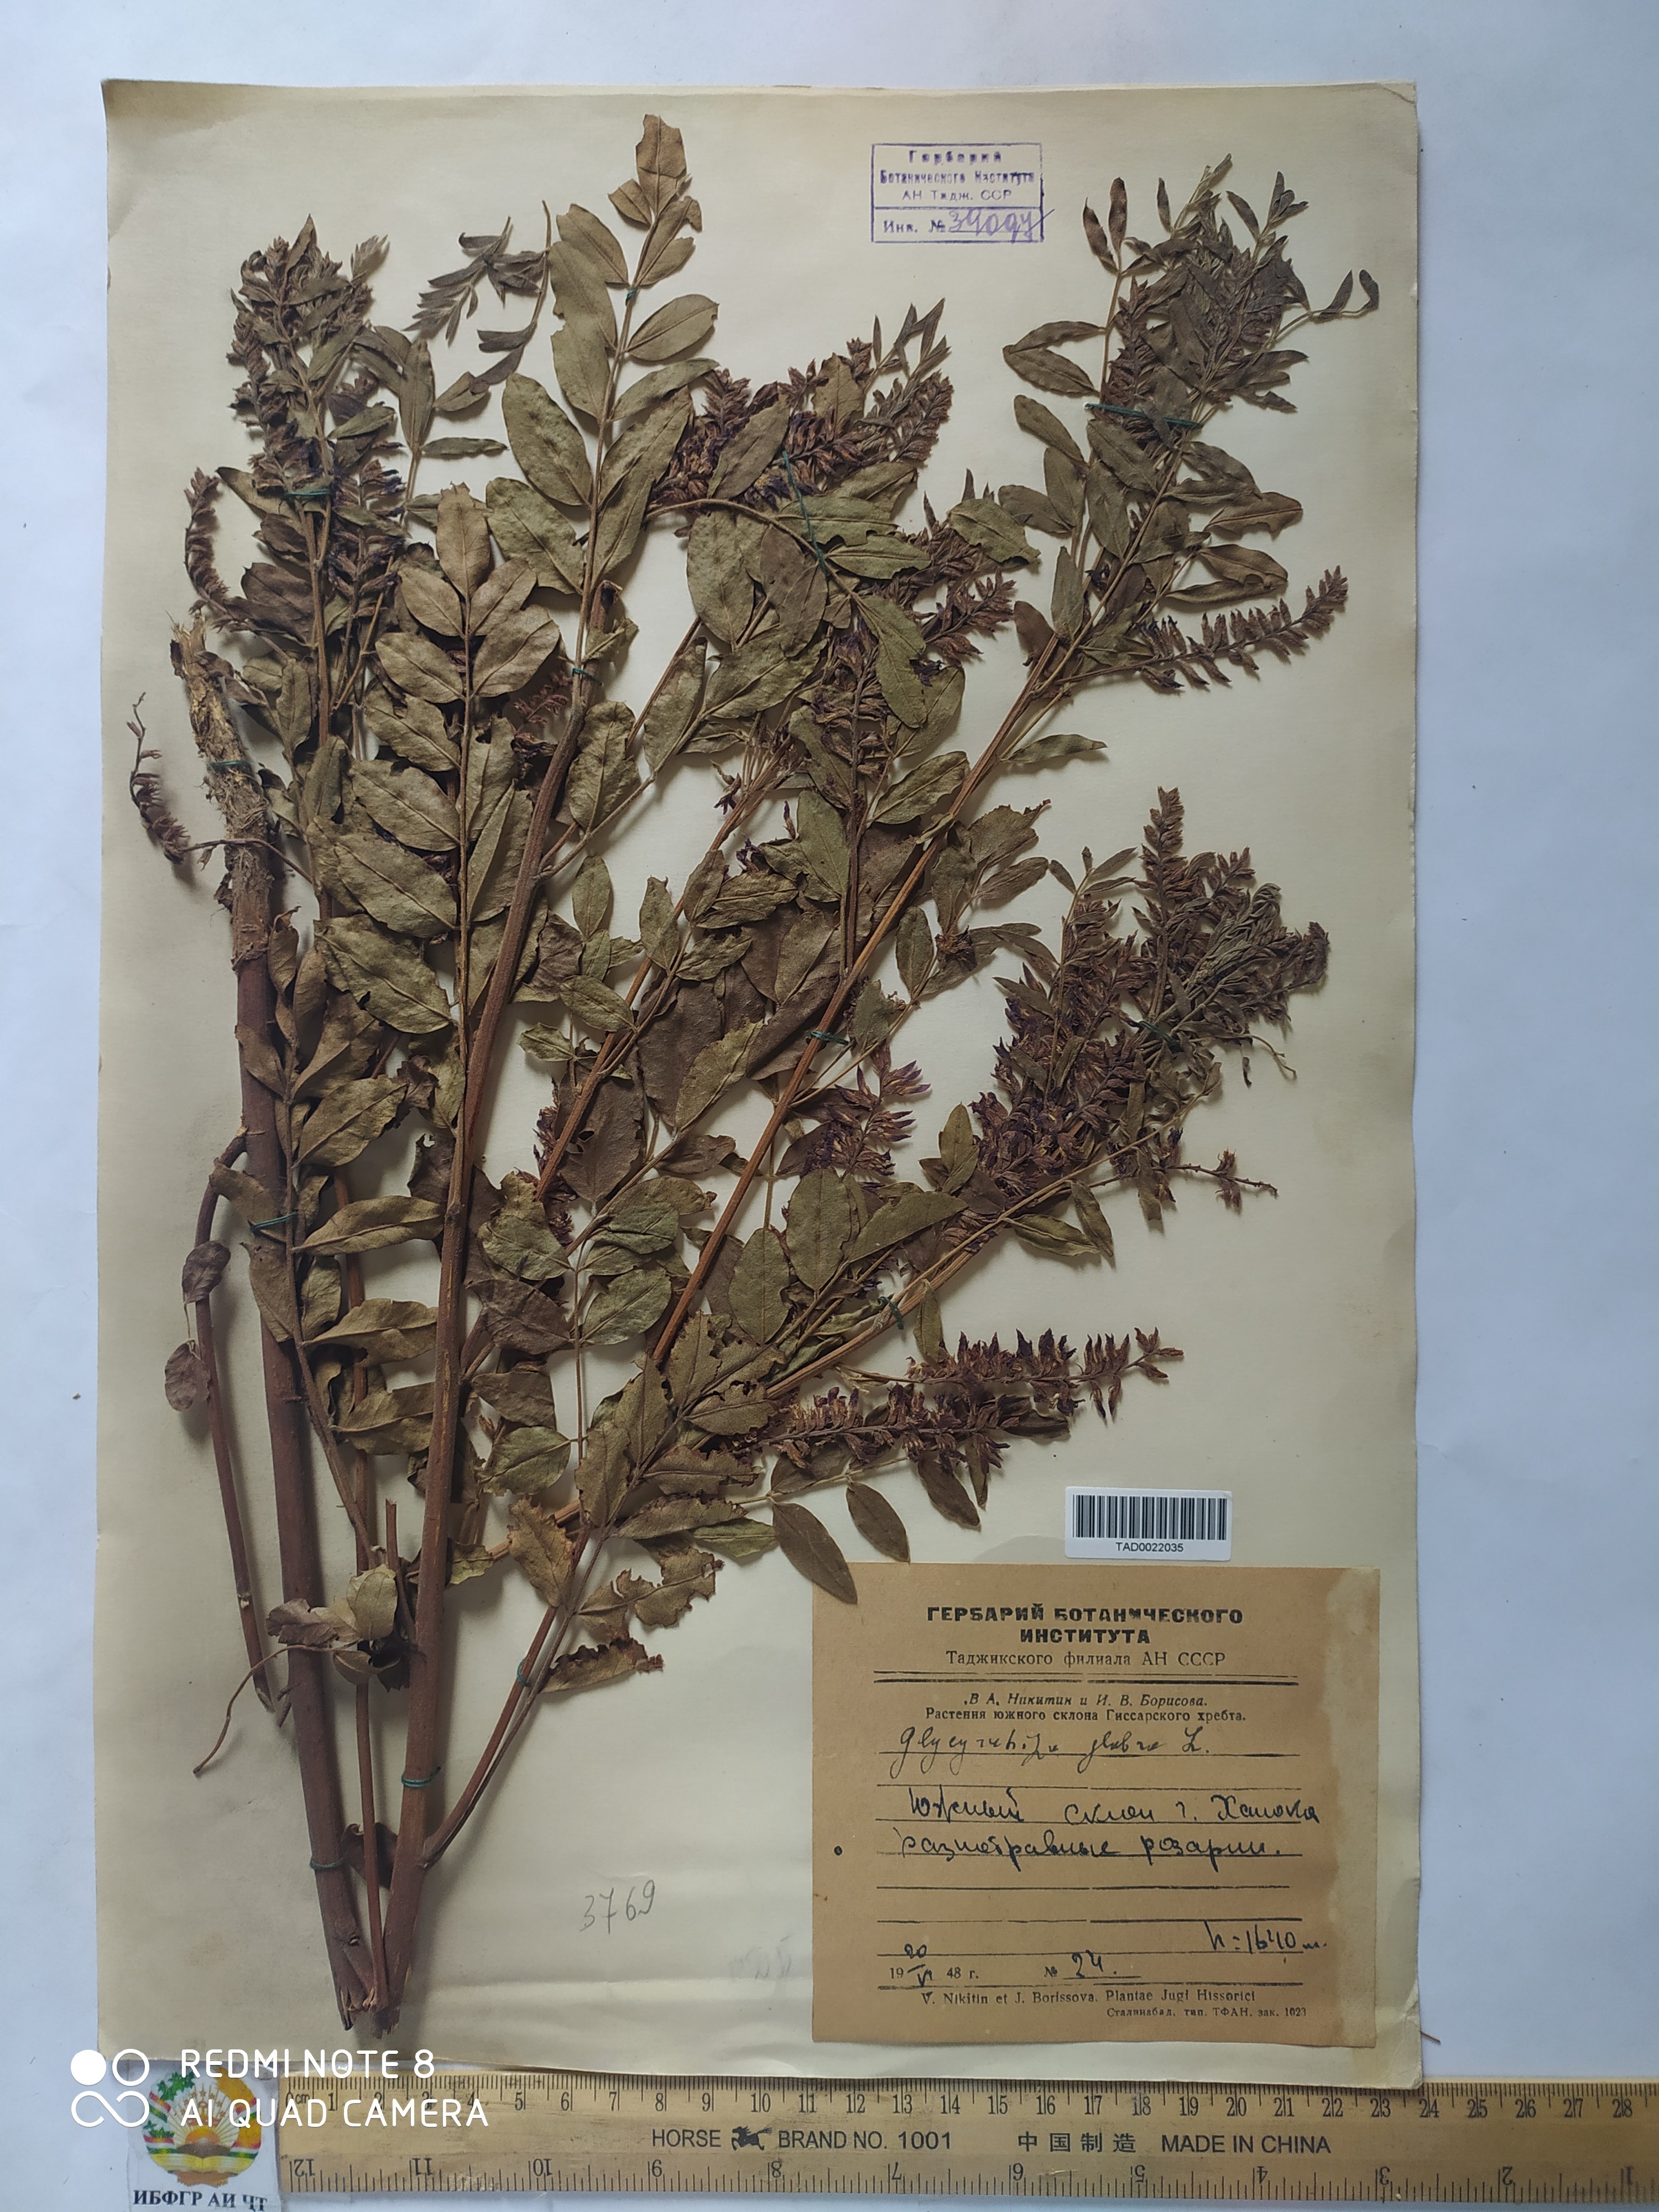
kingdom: Plantae
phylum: Tracheophyta
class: Magnoliopsida
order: Fabales
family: Fabaceae
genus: Glycyrrhiza
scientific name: Glycyrrhiza glabra
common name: Liquorice
